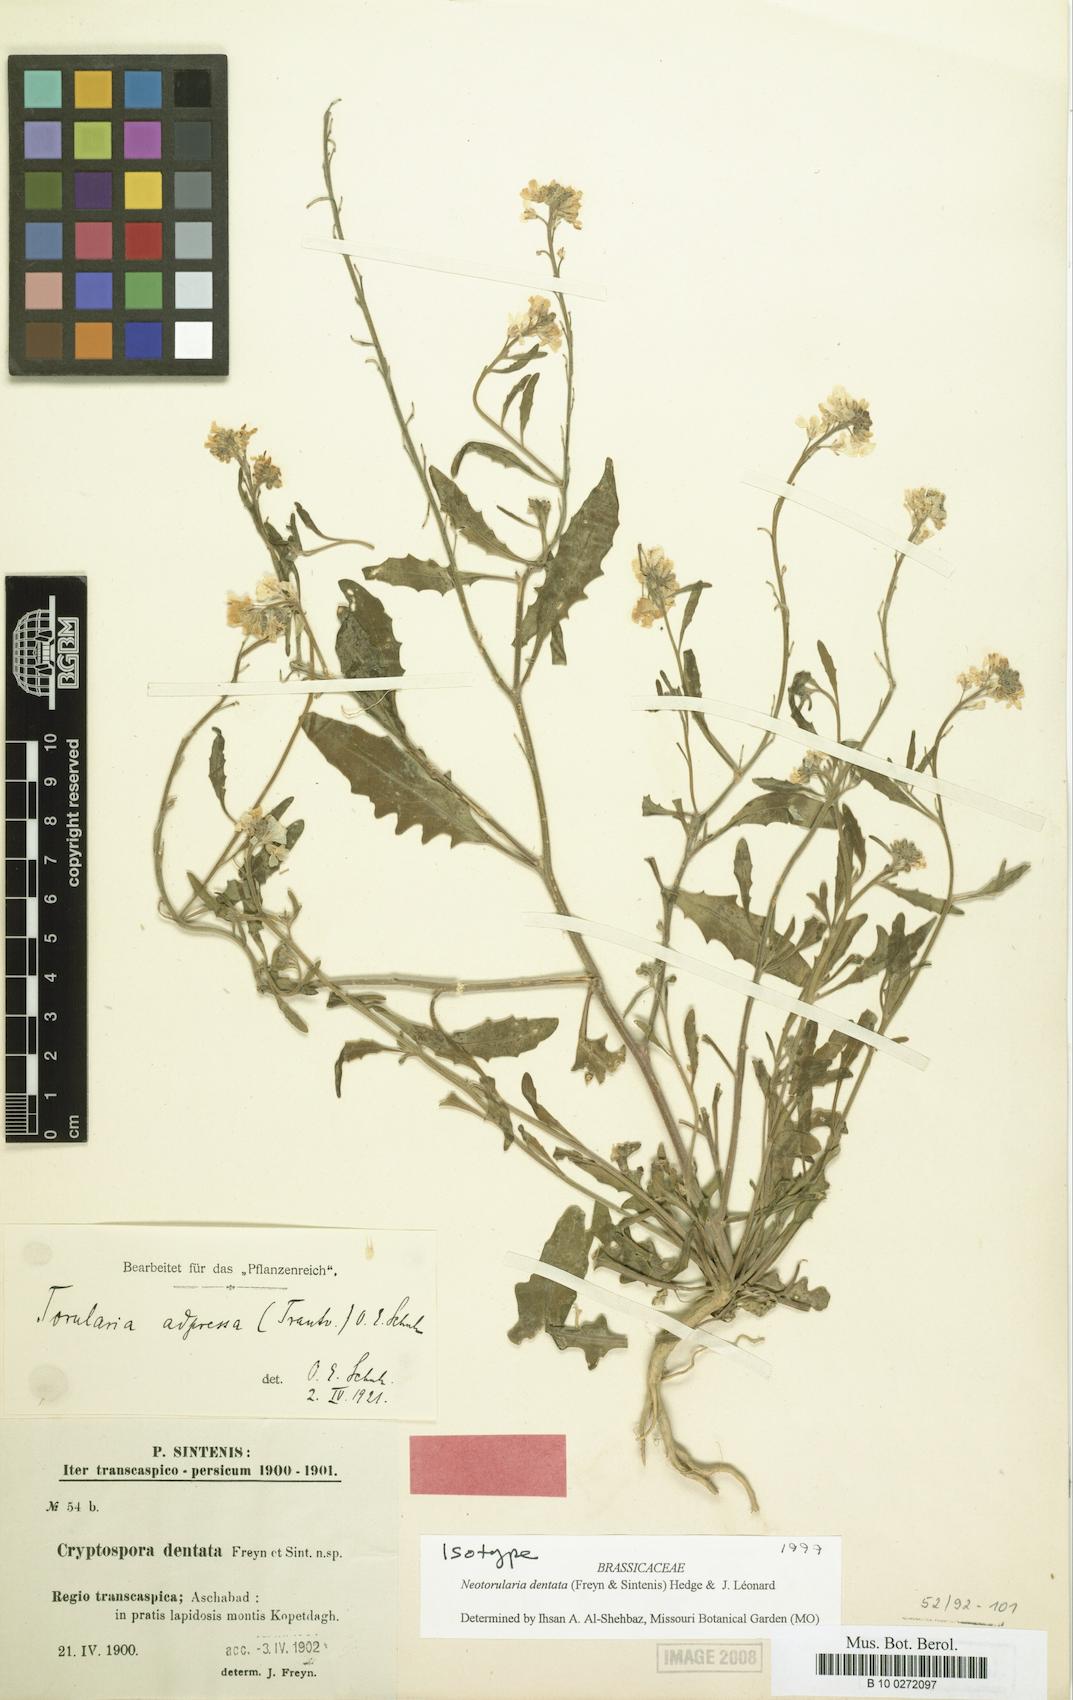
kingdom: Plantae
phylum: Tracheophyta
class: Magnoliopsida
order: Brassicales
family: Brassicaceae
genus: Neotorularia
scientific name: Neotorularia dentata
